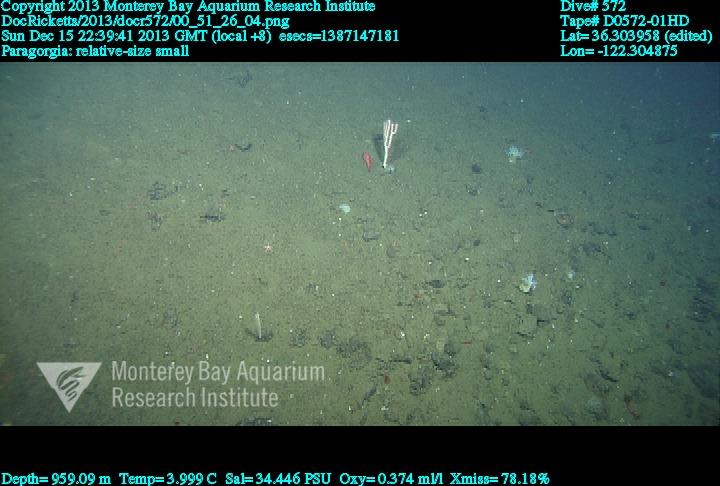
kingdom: Animalia
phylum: Cnidaria
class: Anthozoa
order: Scleralcyonacea
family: Coralliidae
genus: Sibogagorgia
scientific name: Sibogagorgia cauliflora
